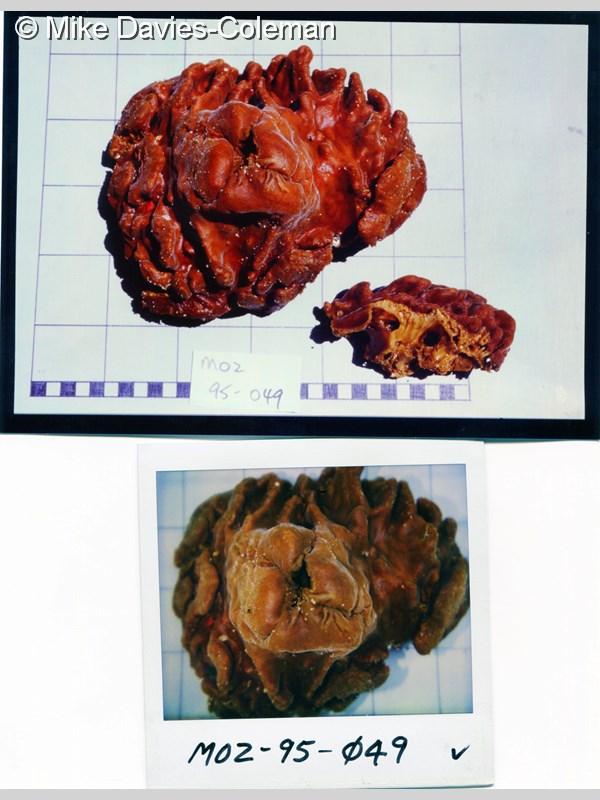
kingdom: Animalia
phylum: Porifera
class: Demospongiae
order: Clionaida
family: Spirastrellidae
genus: Spirastrella
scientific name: Spirastrella
